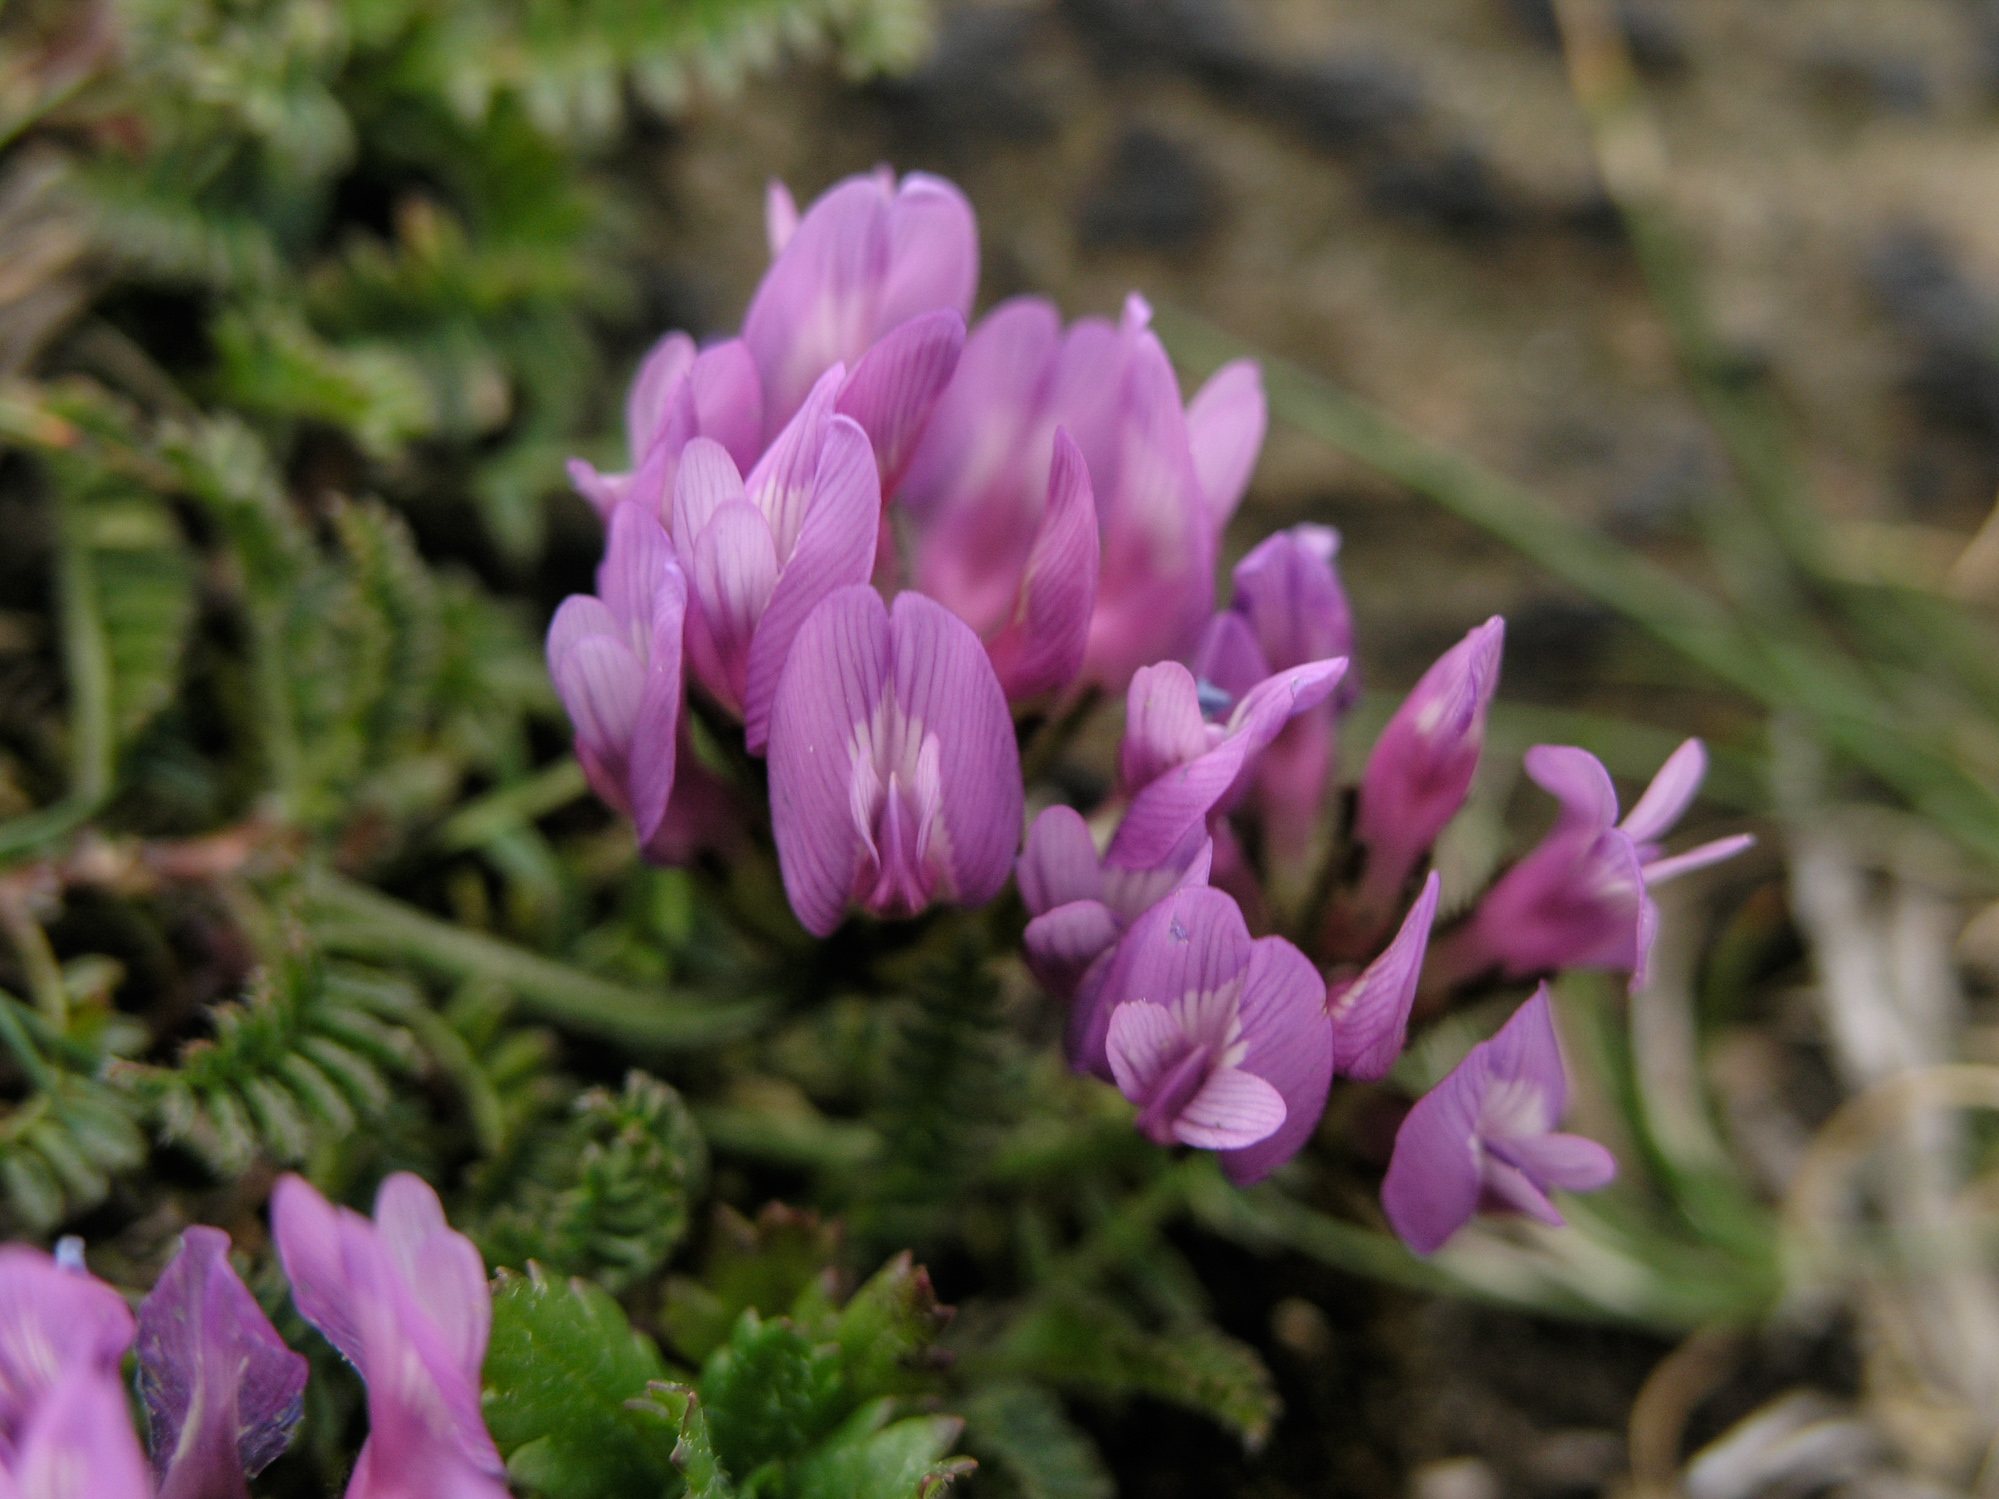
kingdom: Plantae
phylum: Tracheophyta
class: Magnoliopsida
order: Fabales
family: Fabaceae
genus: Oxytropis
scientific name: Oxytropis halleri
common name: Purple oxytropis
